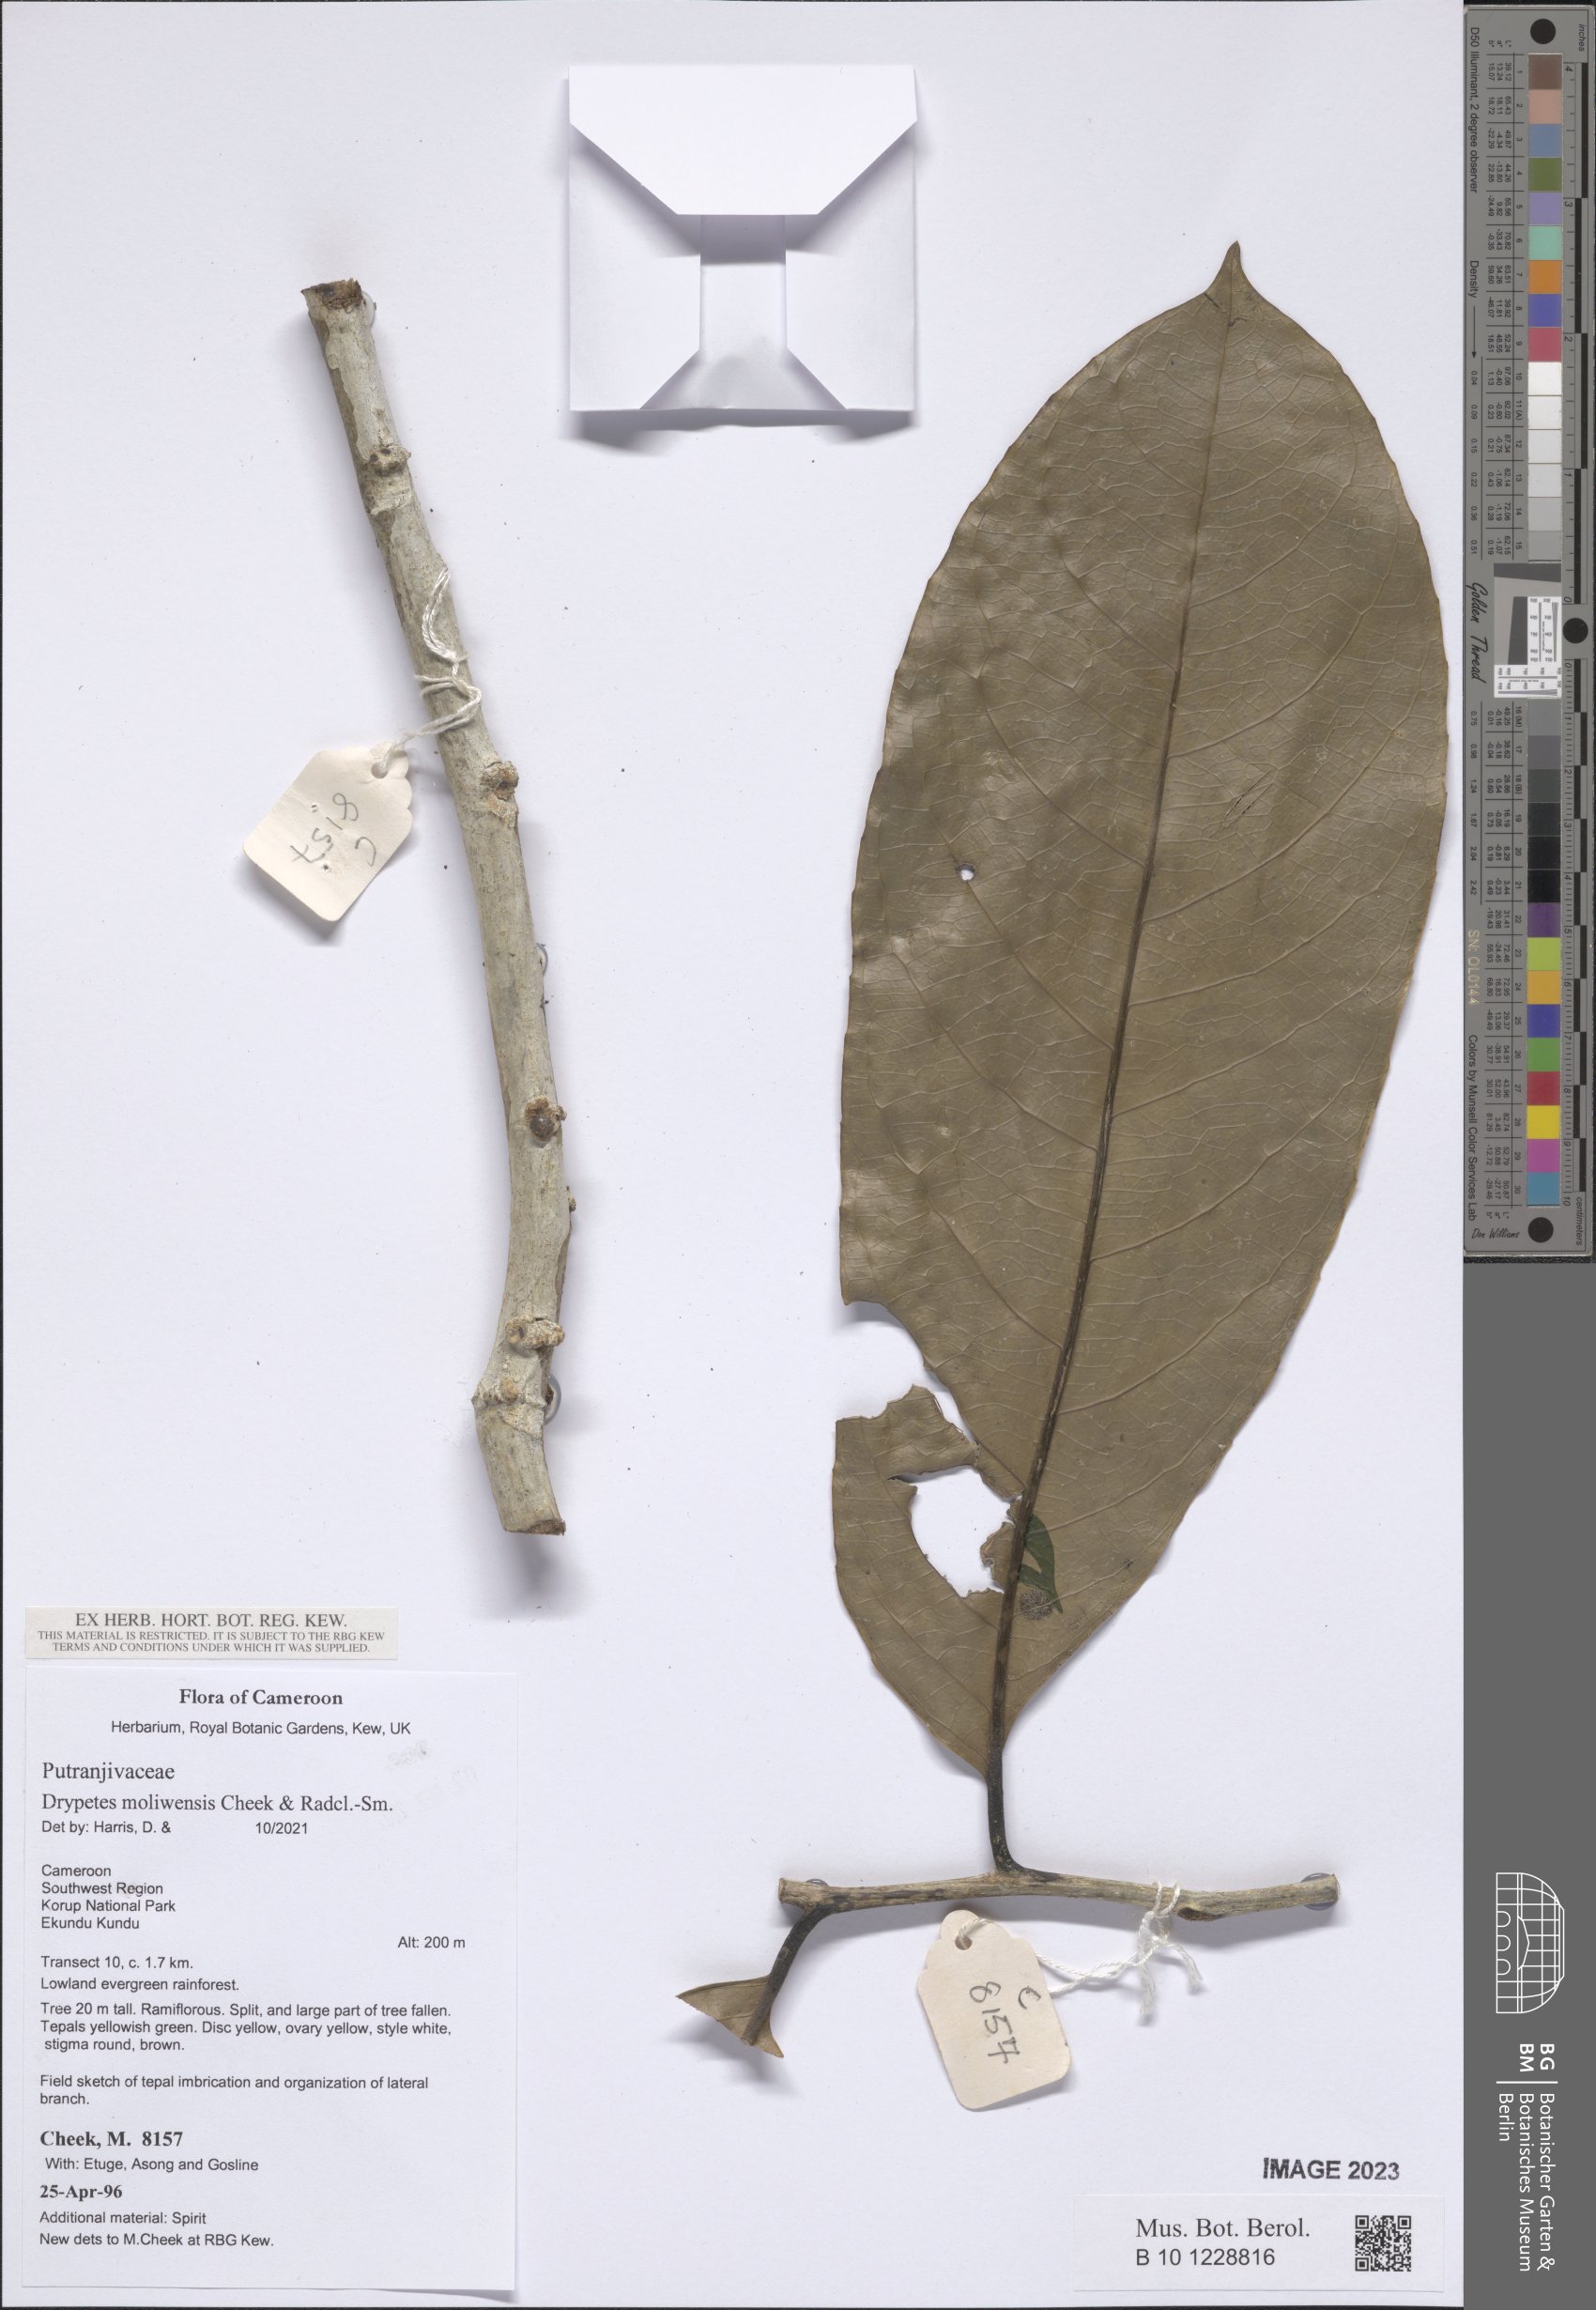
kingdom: Plantae
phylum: Tracheophyta
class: Magnoliopsida
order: Malpighiales
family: Putranjivaceae
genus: Drypetes
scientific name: Drypetes moliwensis
